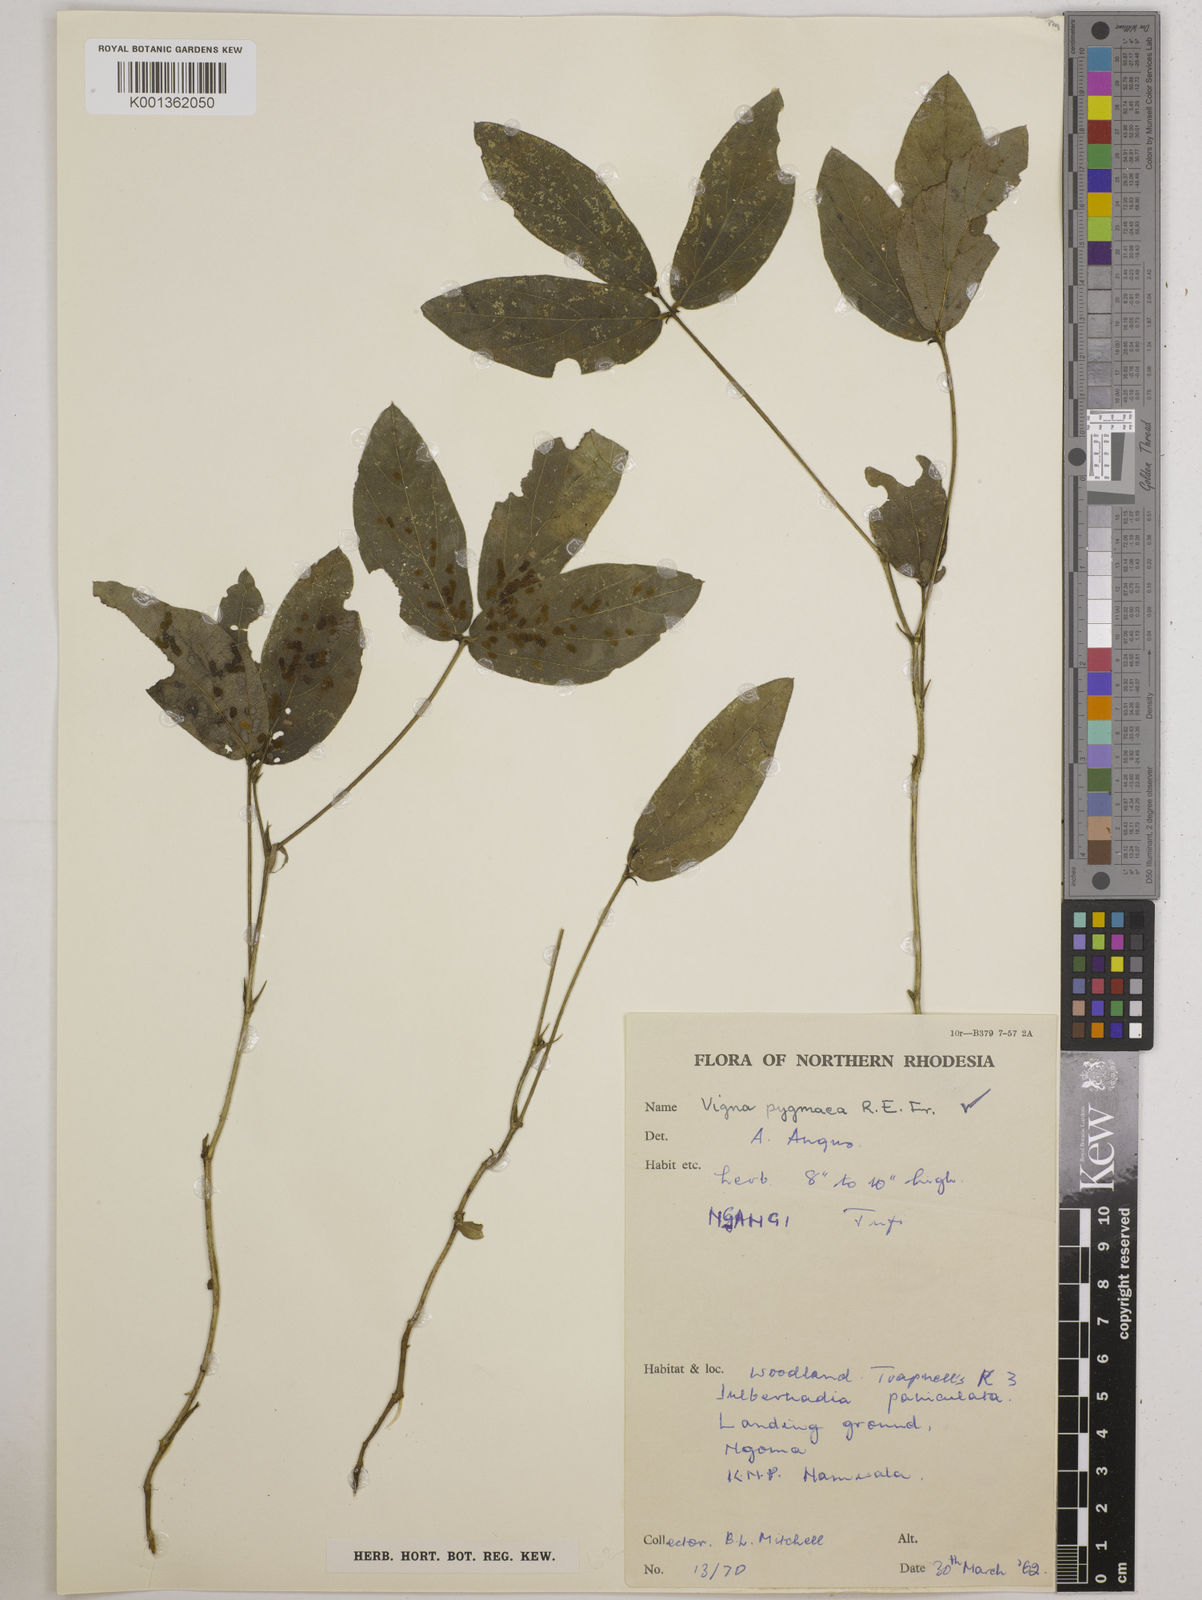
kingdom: Plantae
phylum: Tracheophyta
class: Magnoliopsida
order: Fabales
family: Fabaceae
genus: Vigna
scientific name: Vigna pygmaea
